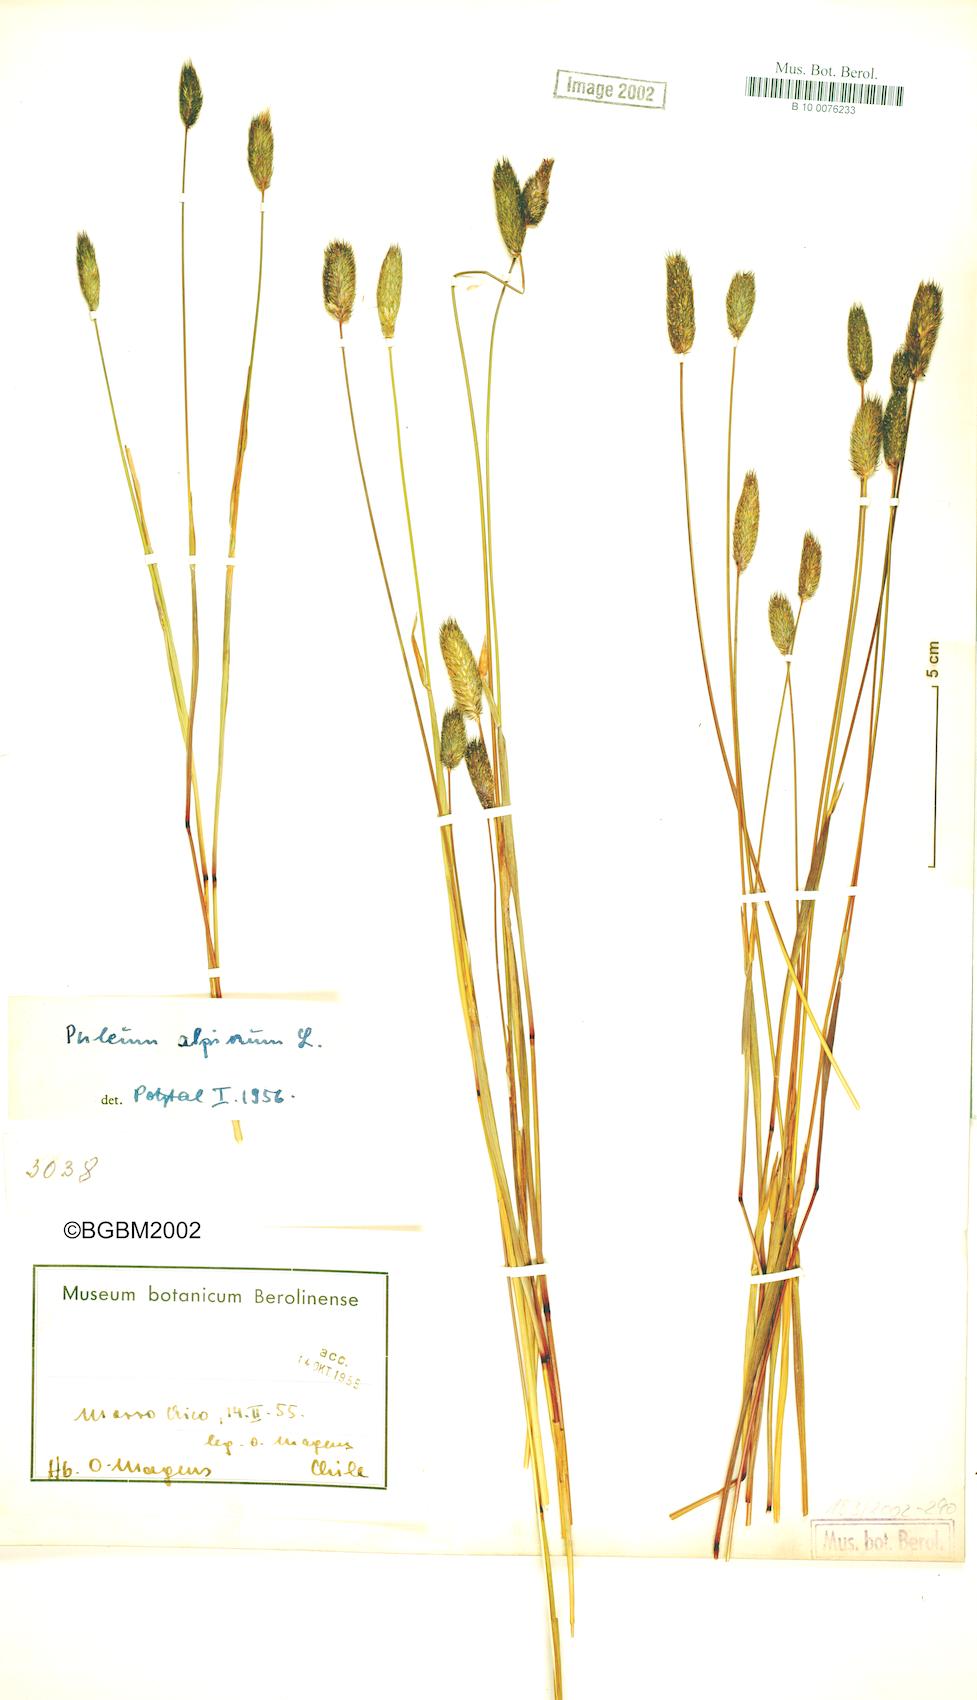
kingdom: Plantae
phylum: Tracheophyta
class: Liliopsida
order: Poales
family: Poaceae
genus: Phleum
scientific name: Phleum alpinum
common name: Alpine cat's-tail
